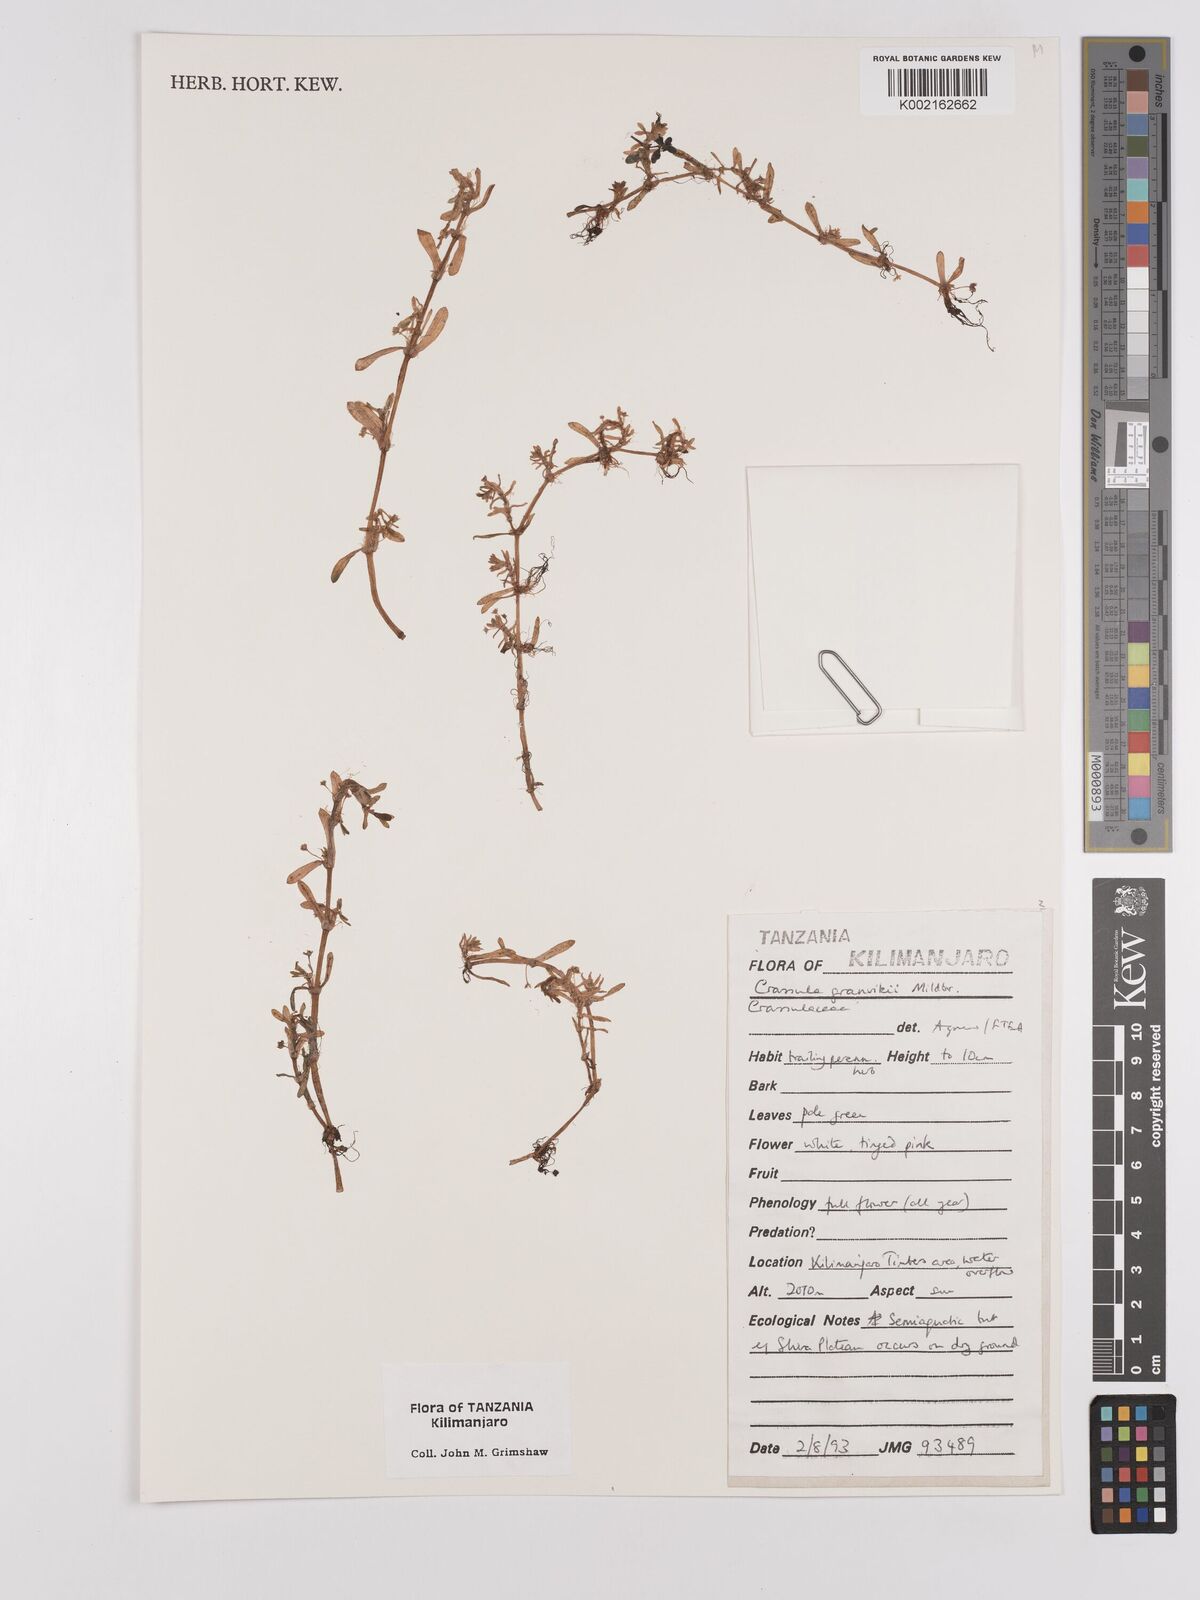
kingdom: Plantae
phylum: Tracheophyta
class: Magnoliopsida
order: Saxifragales
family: Crassulaceae
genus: Crassula
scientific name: Crassula granvikii
